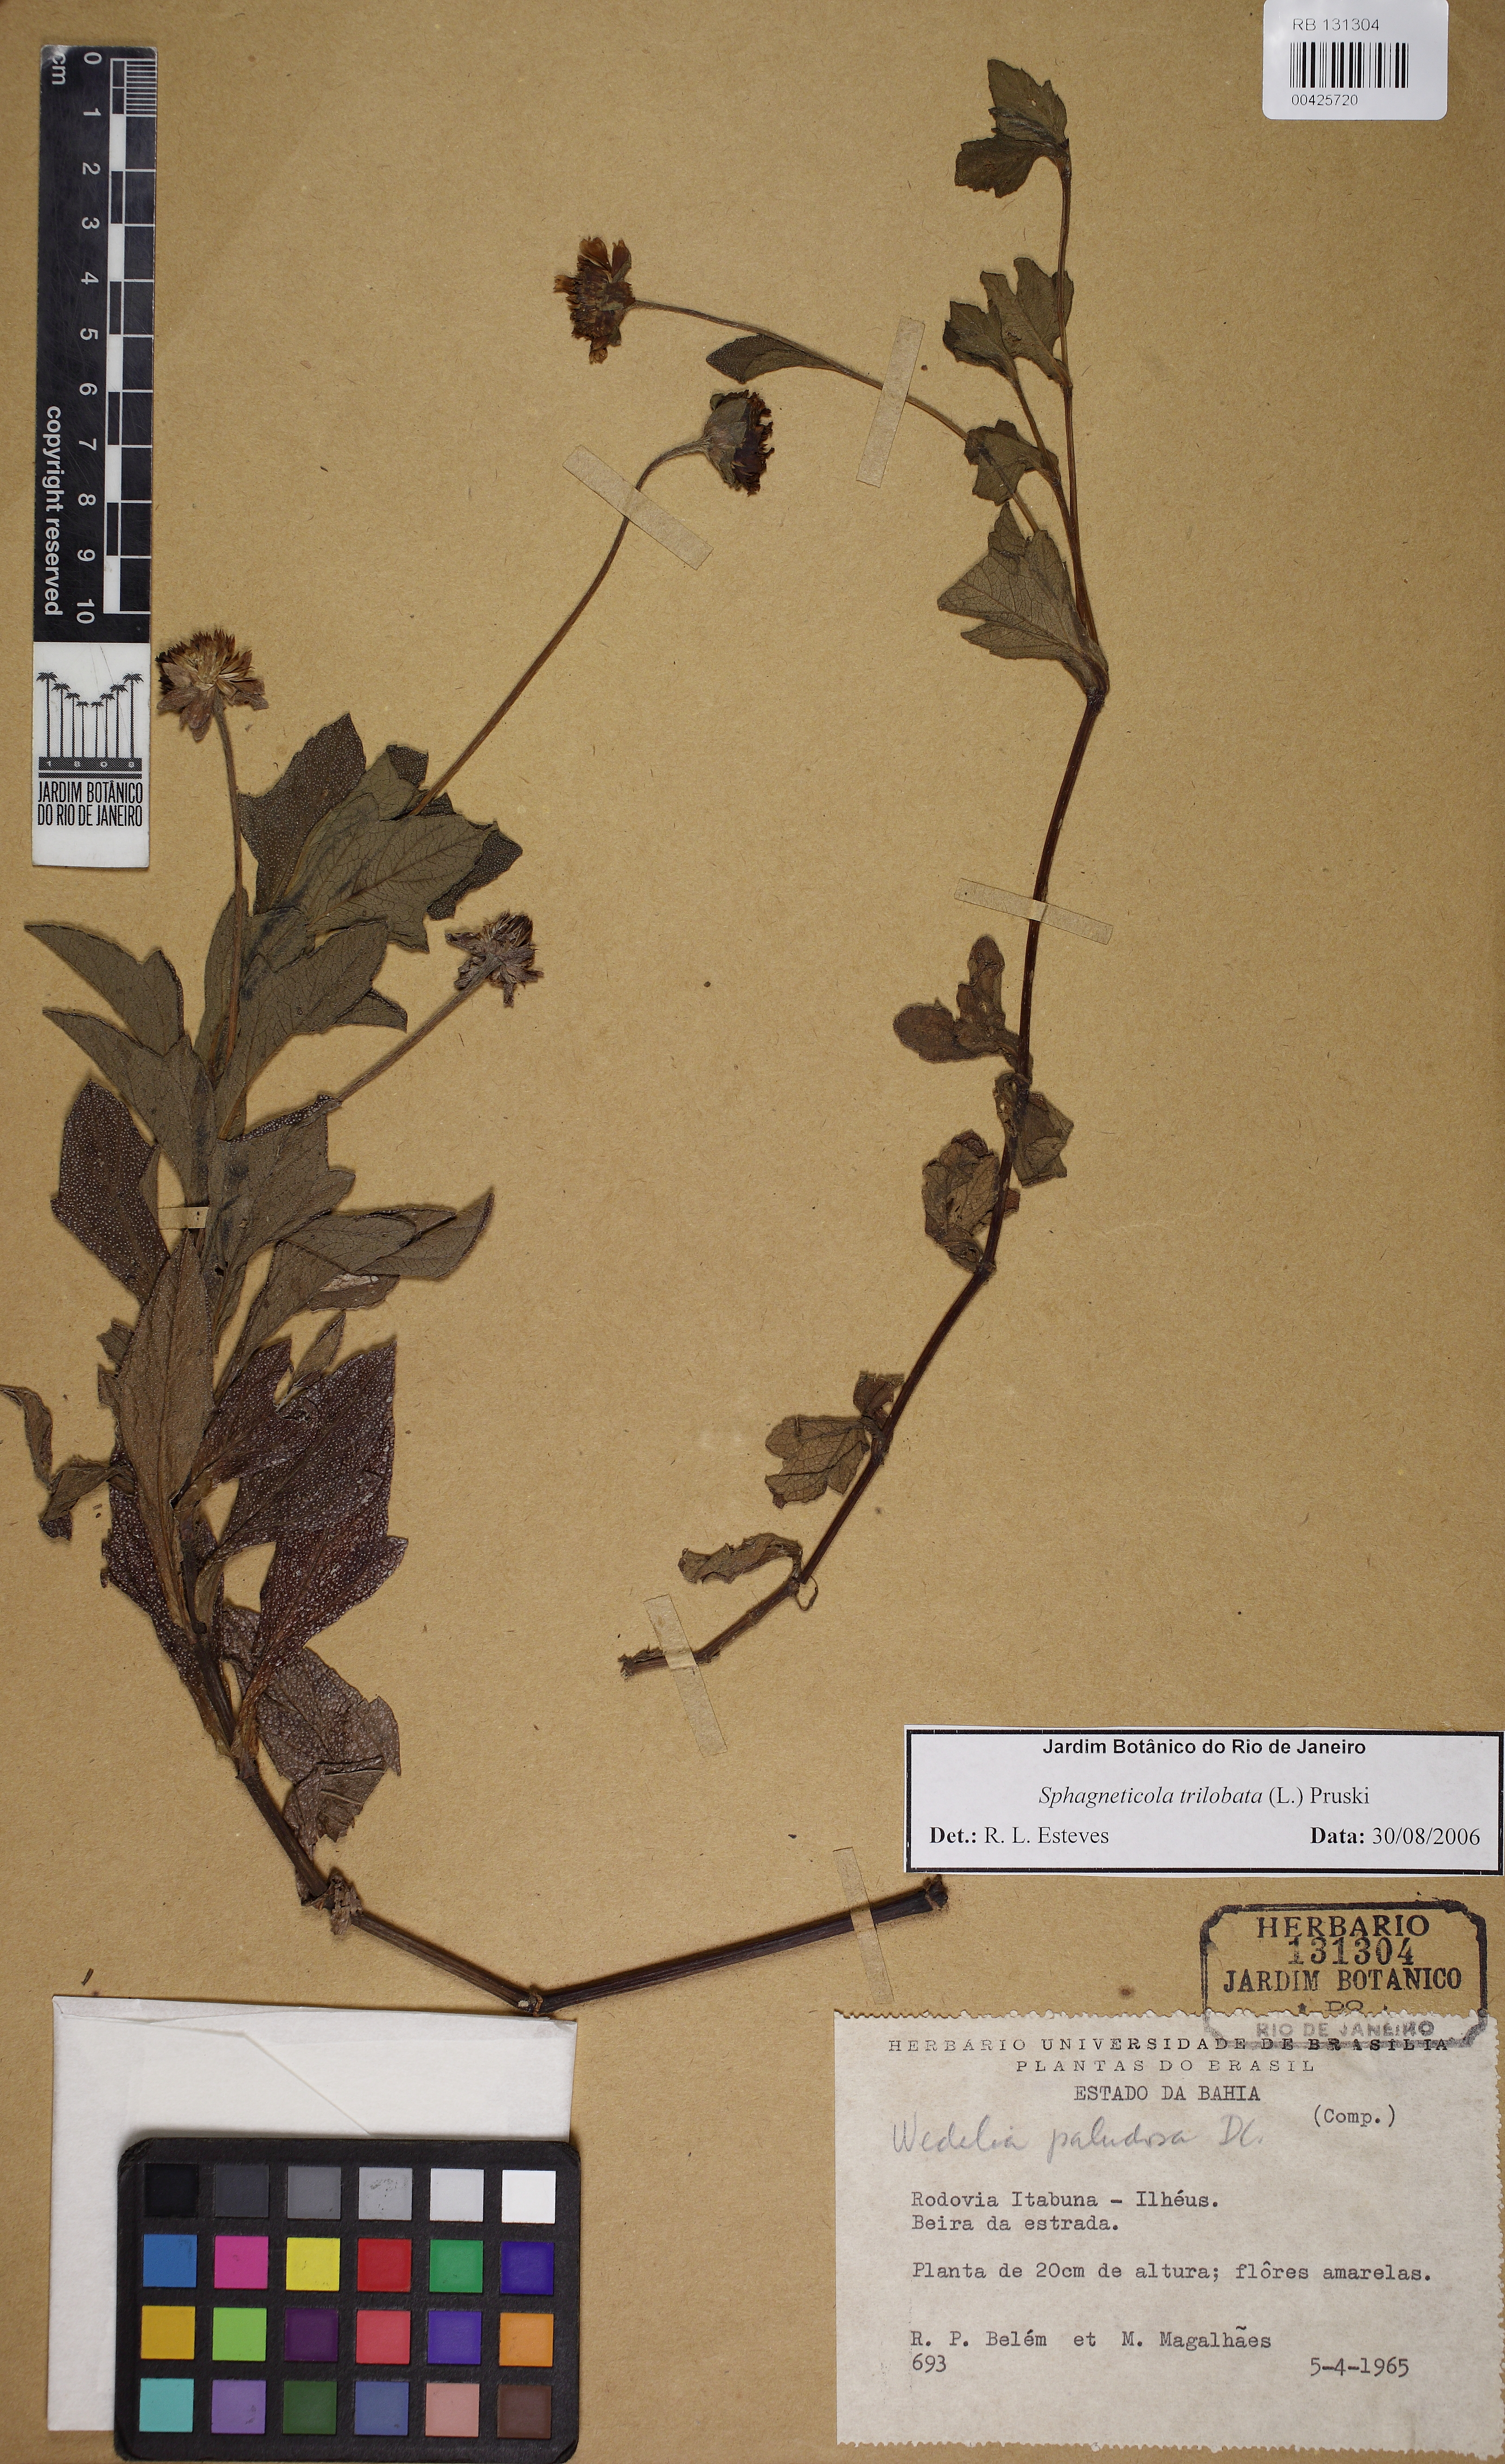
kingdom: Plantae
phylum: Tracheophyta
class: Magnoliopsida
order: Asterales
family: Asteraceae
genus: Sphagneticola
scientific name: Sphagneticola trilobata
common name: Bay biscayne creeping-oxeye
